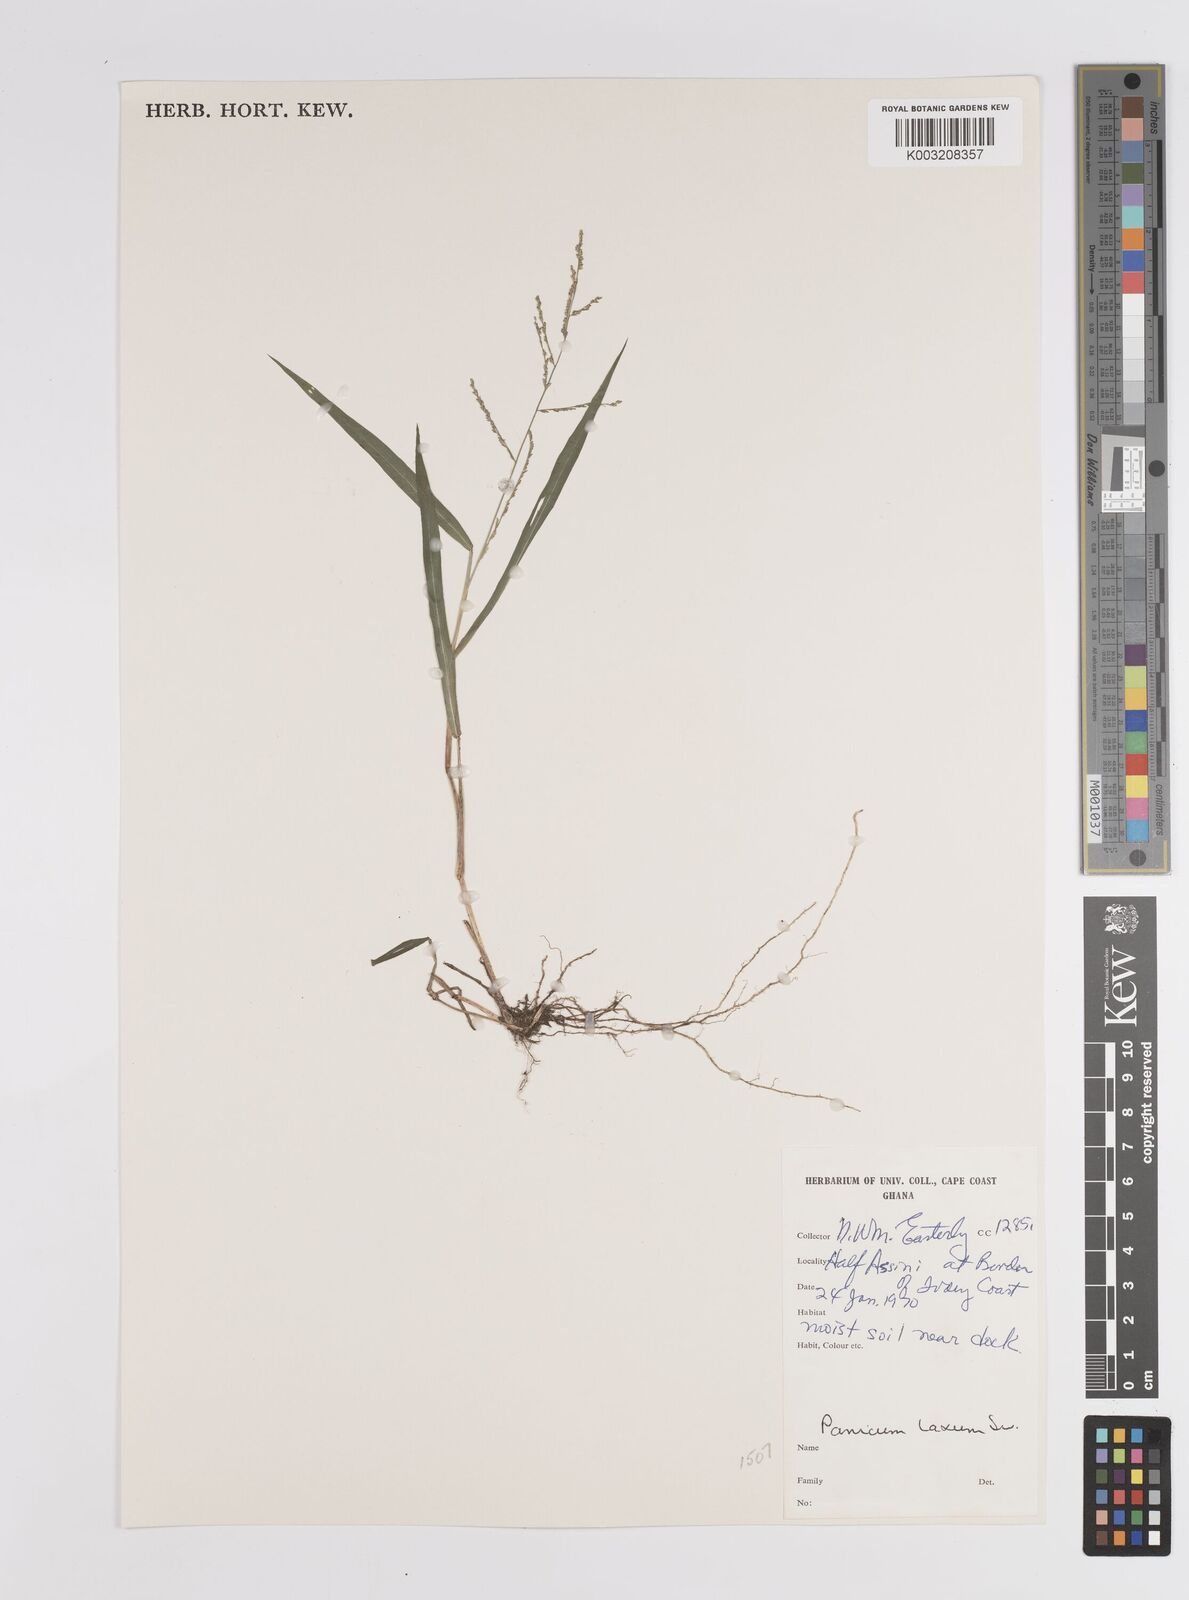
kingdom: Plantae
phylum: Tracheophyta
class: Liliopsida
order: Poales
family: Poaceae
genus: Steinchisma
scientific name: Steinchisma laxum
